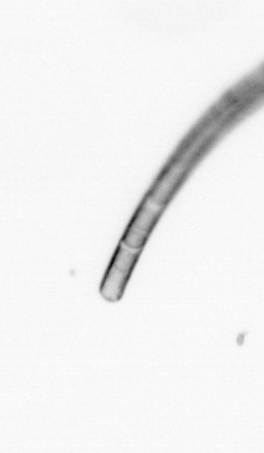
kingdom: Chromista
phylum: Ochrophyta
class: Bacillariophyceae
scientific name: Bacillariophyceae
